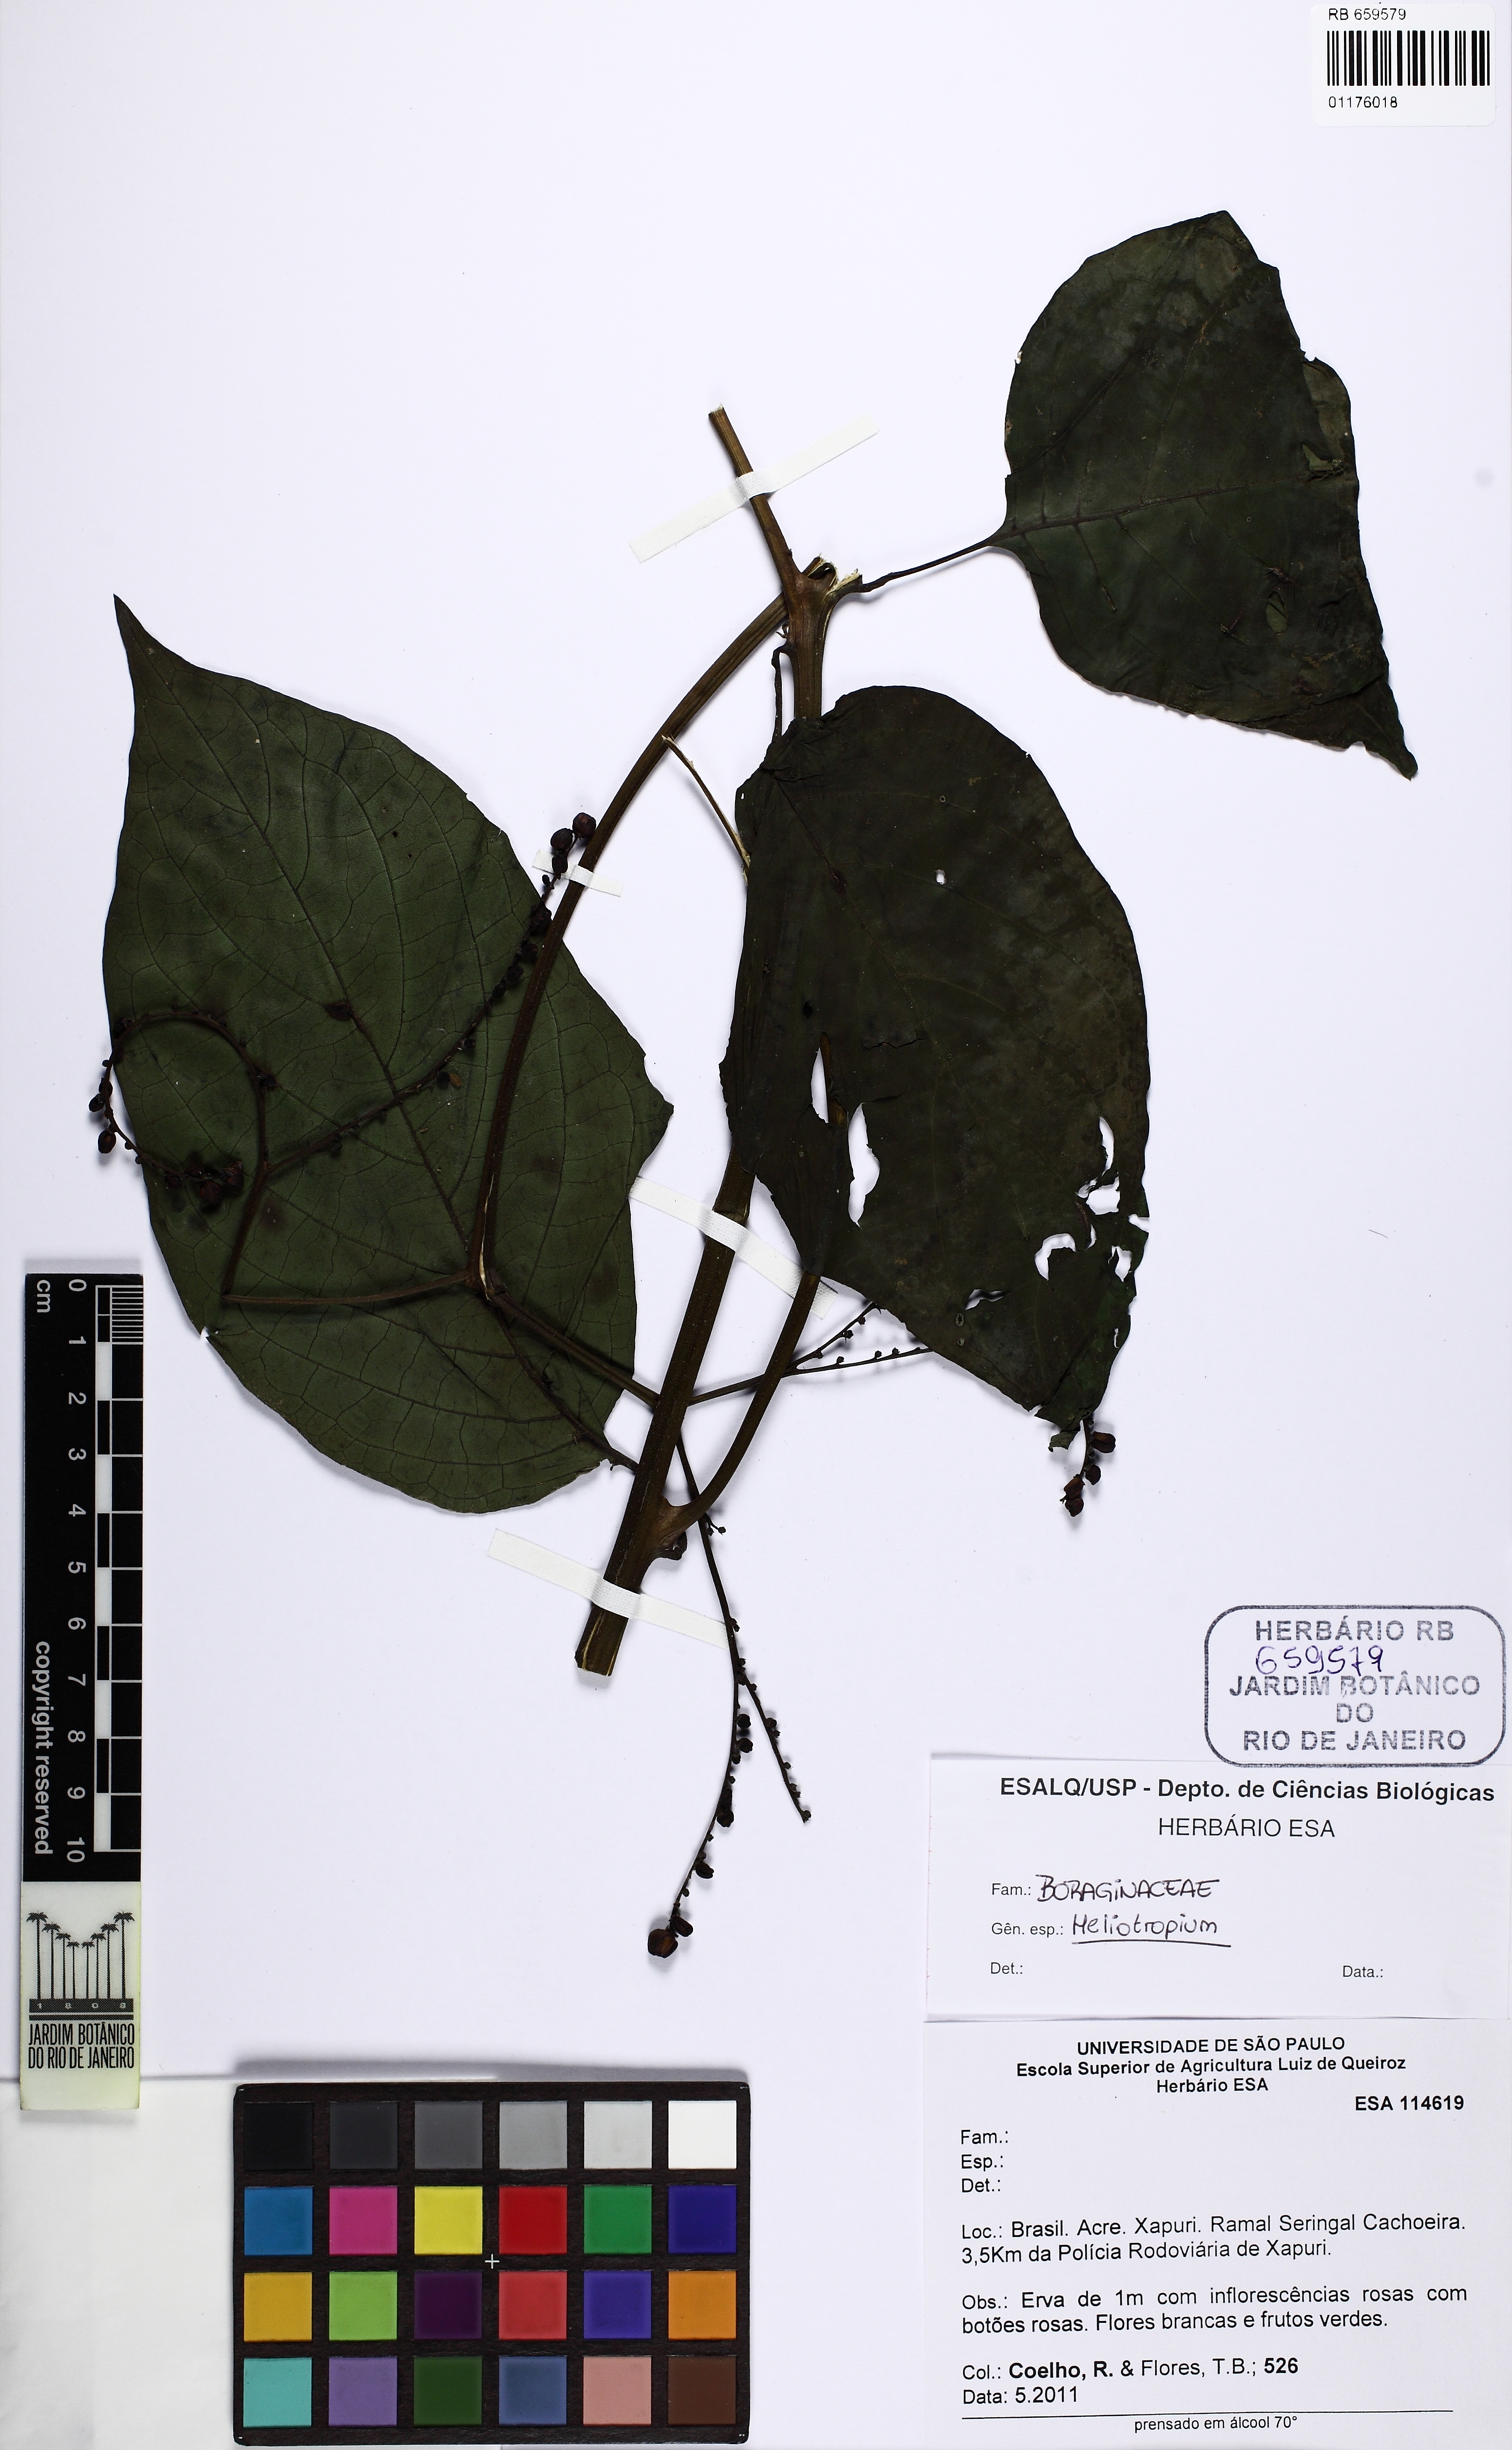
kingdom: Plantae
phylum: Tracheophyta
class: Magnoliopsida
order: Boraginales
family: Heliotropiaceae
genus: Heliotropium
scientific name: Heliotropium ulei
